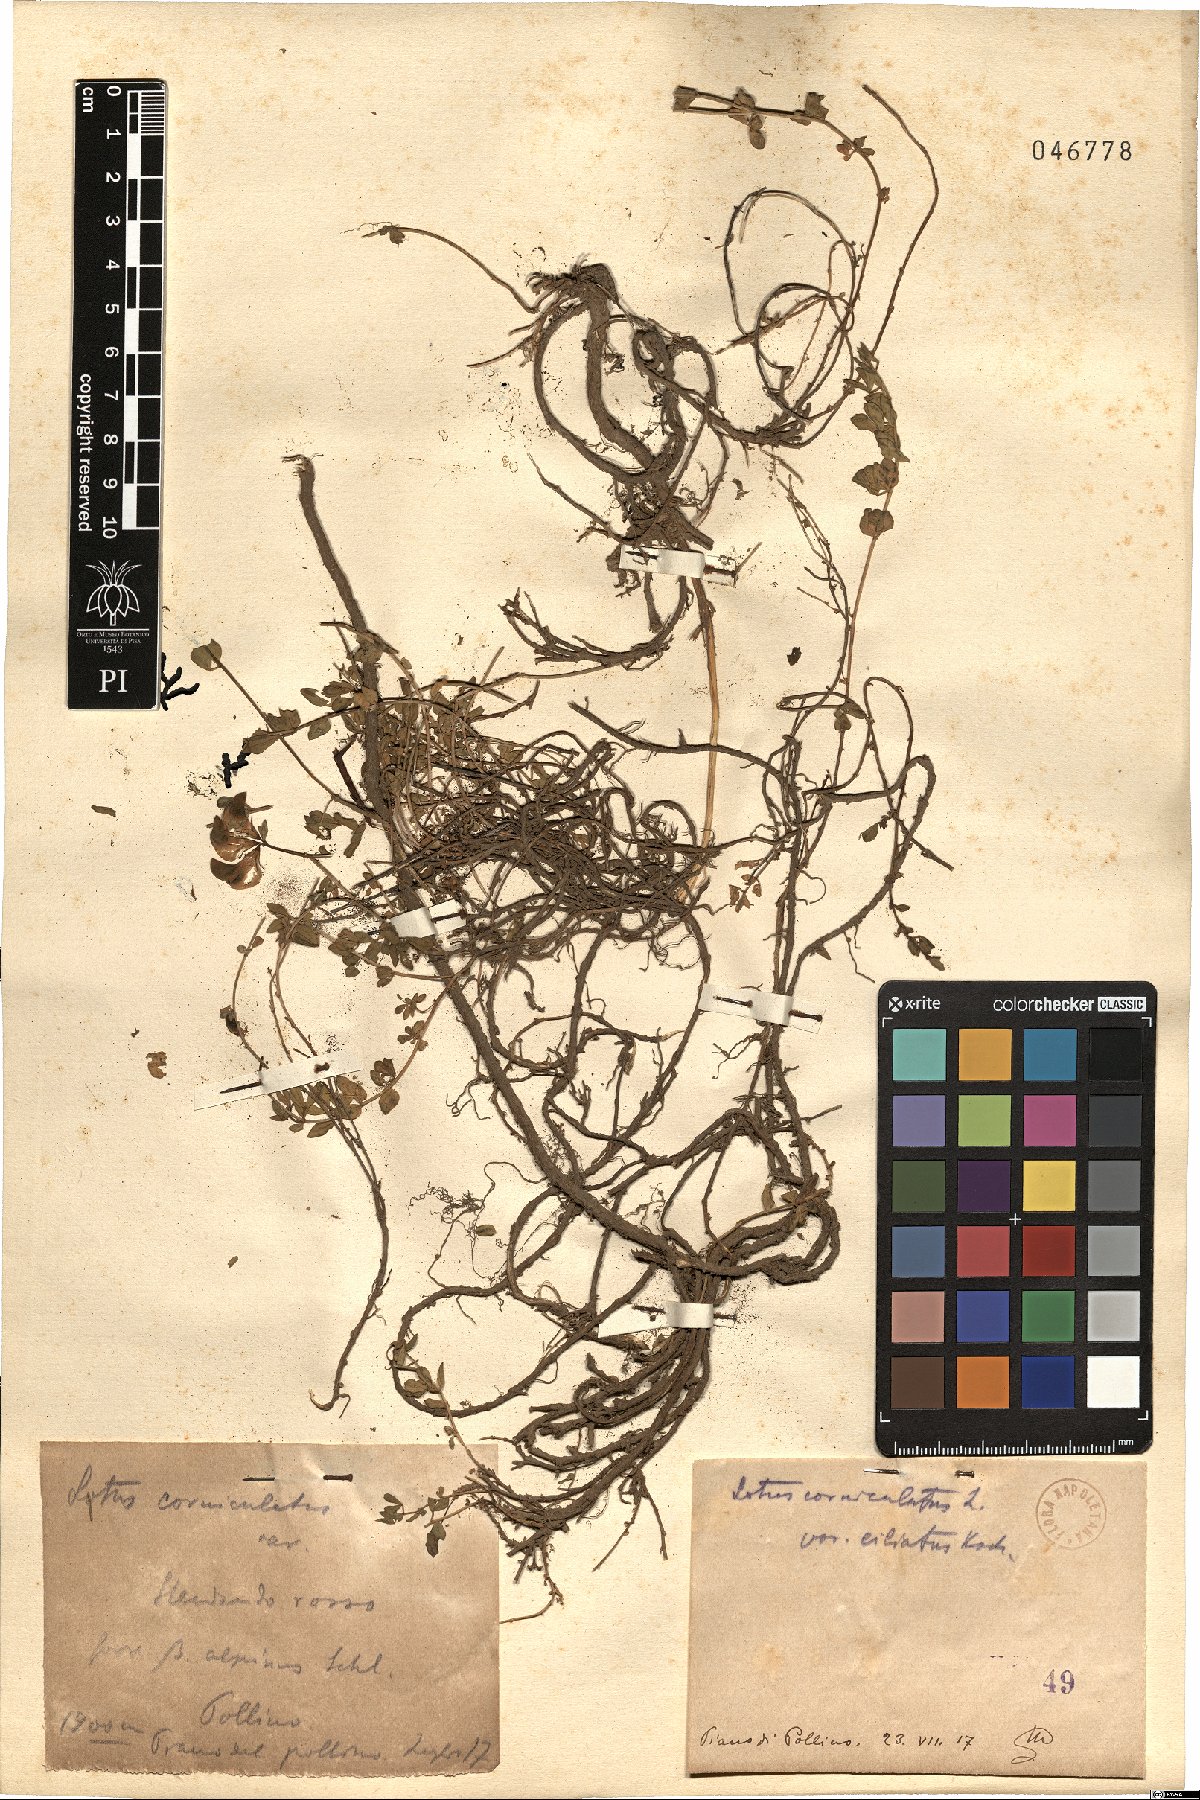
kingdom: Plantae
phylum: Tracheophyta
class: Magnoliopsida
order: Fabales
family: Fabaceae
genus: Lotus
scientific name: Lotus angustissimus
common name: Slender bird's-foot trefoil
